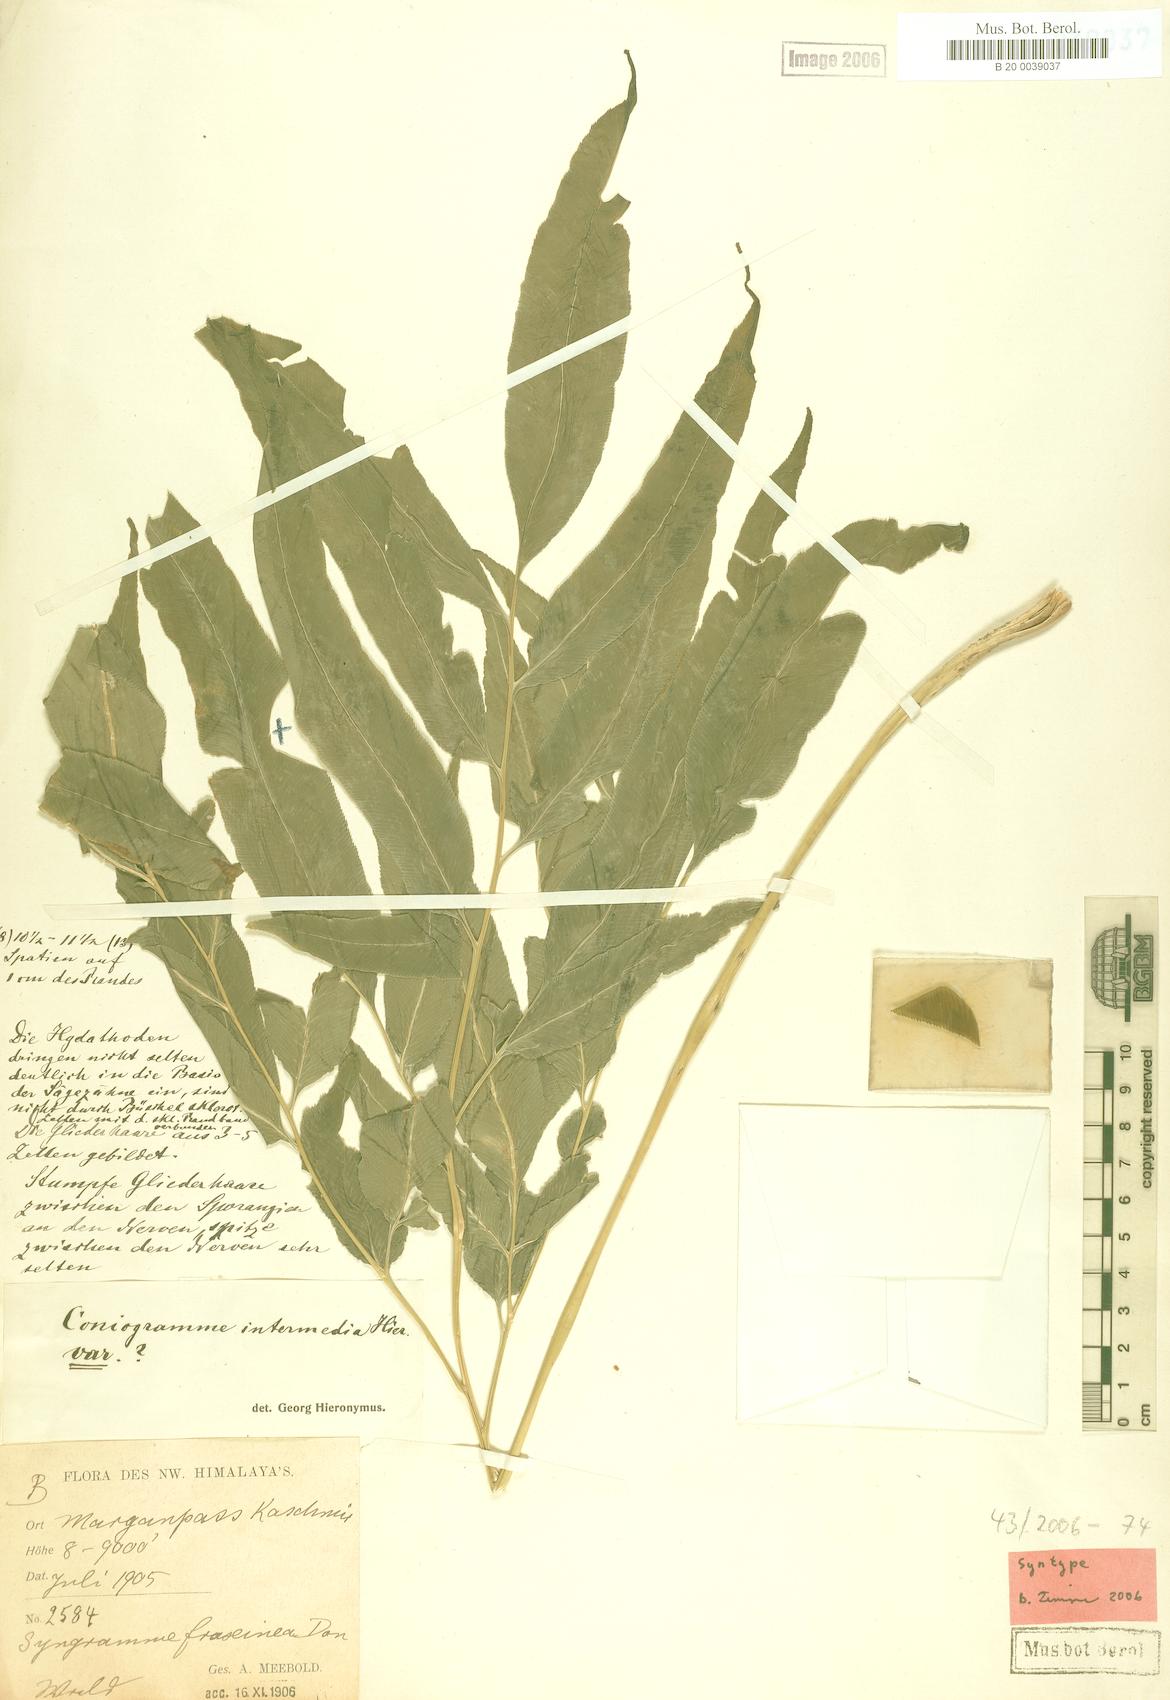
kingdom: Plantae
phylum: Tracheophyta
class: Polypodiopsida
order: Polypodiales
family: Pteridaceae
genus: Coniogramme
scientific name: Coniogramme intermedia
